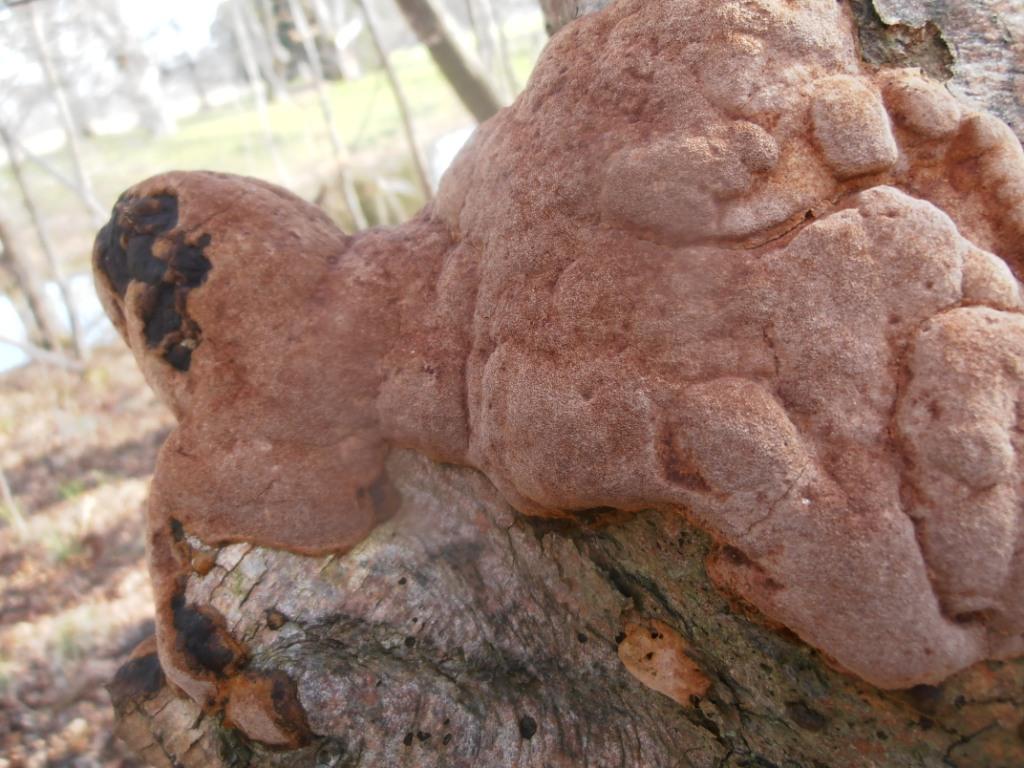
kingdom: Fungi
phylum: Basidiomycota
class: Agaricomycetes
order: Hymenochaetales
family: Hymenochaetaceae
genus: Fuscoporia
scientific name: Fuscoporia ferrea
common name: skorpe-ildporesvamp
